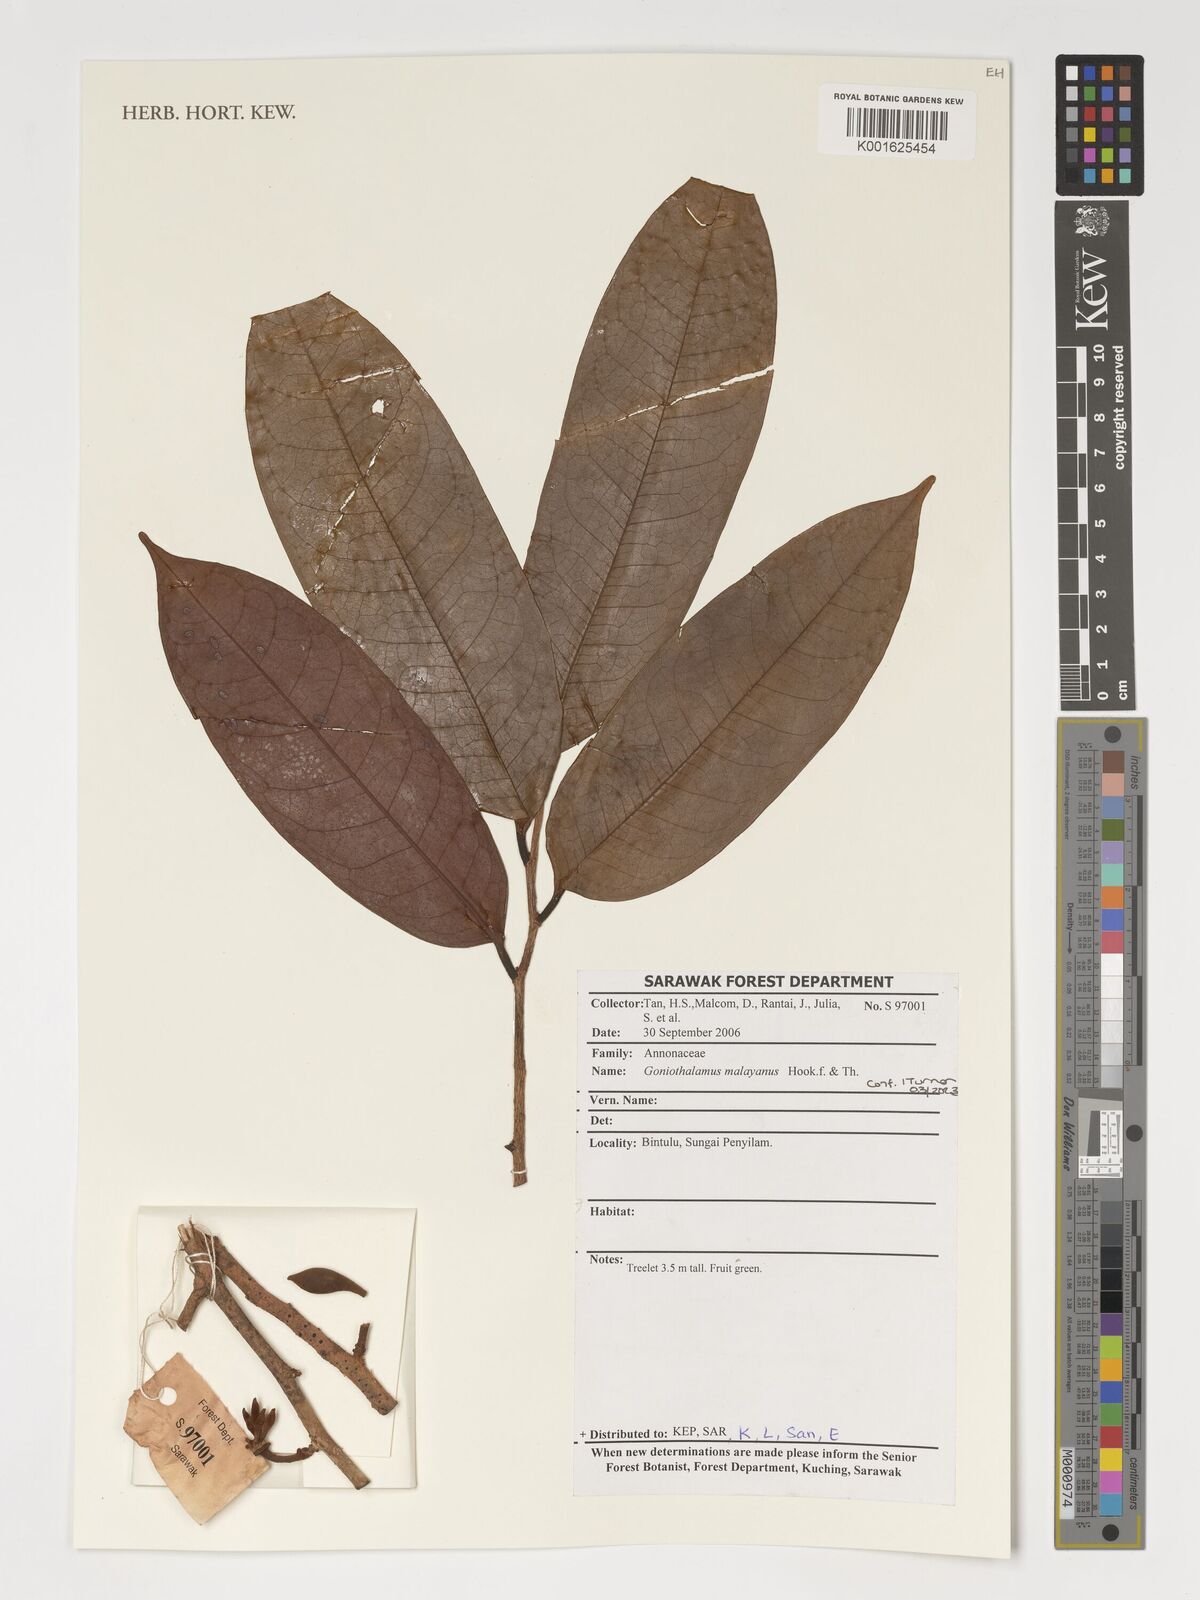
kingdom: Plantae
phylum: Tracheophyta
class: Magnoliopsida
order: Magnoliales
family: Annonaceae
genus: Goniothalamus
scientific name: Goniothalamus malayanus
